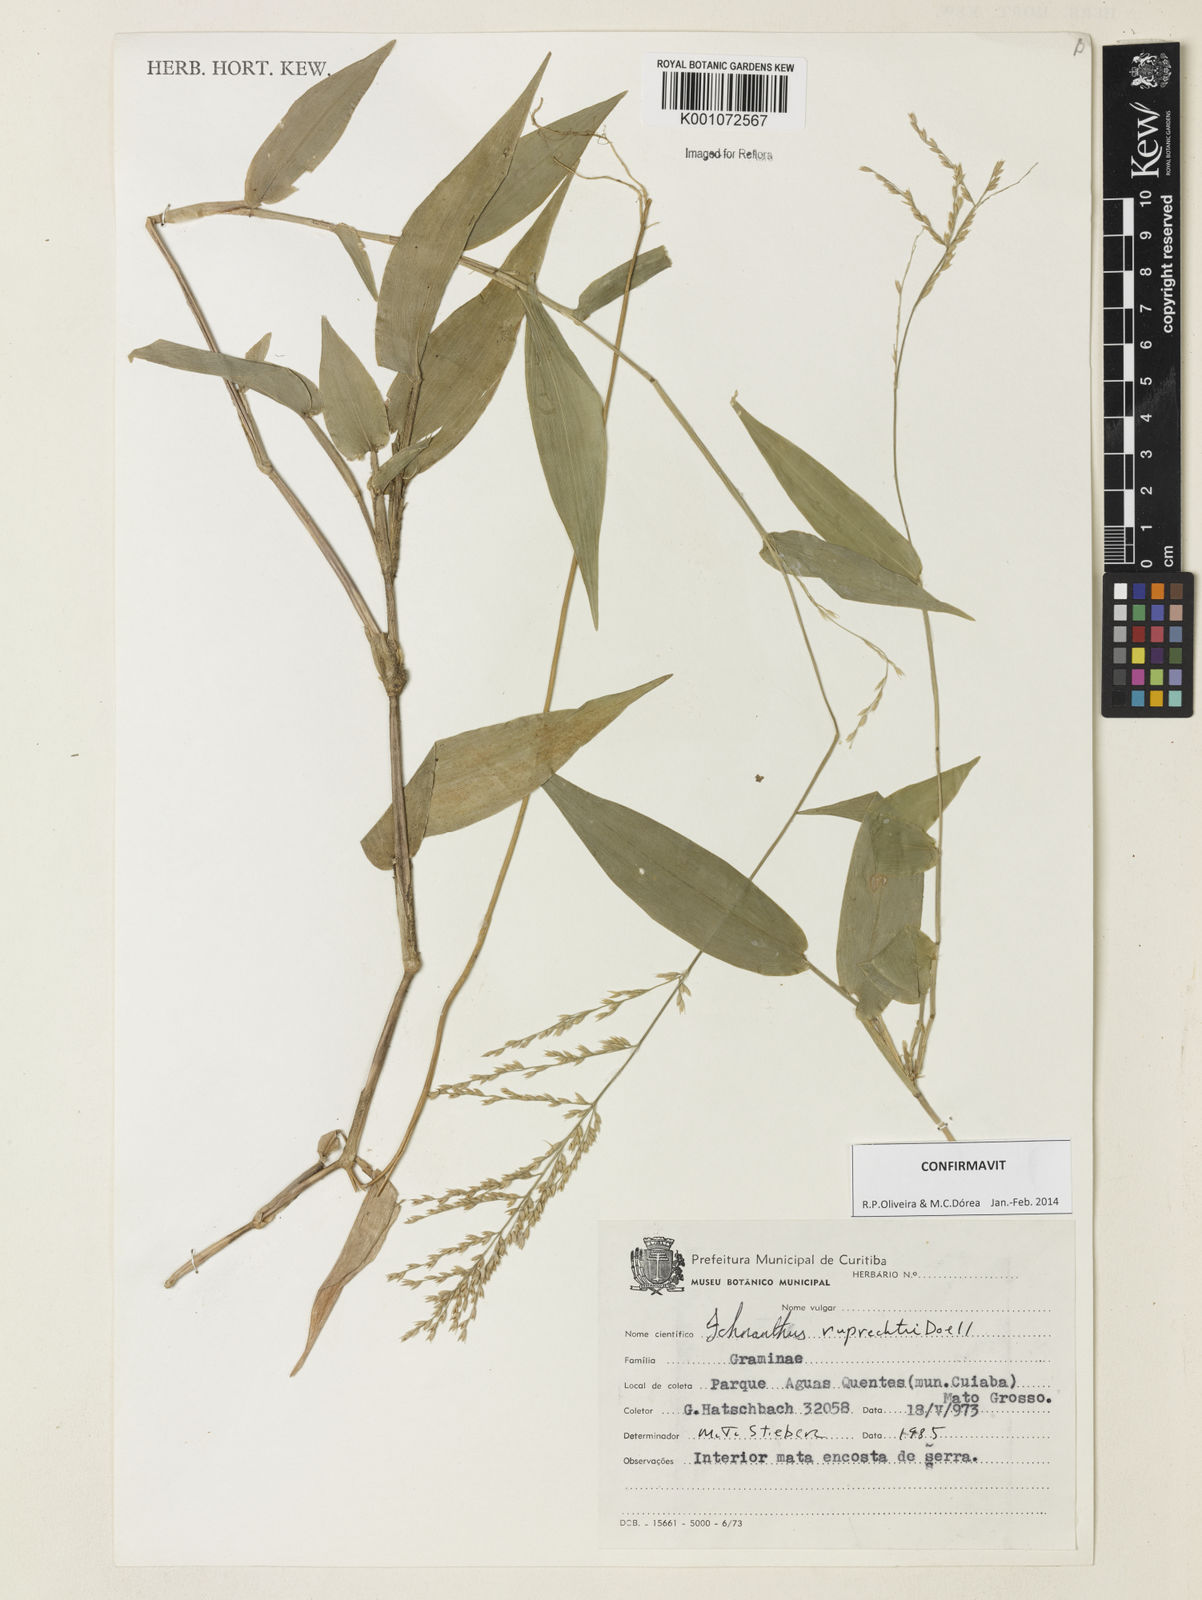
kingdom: Plantae
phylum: Tracheophyta
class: Liliopsida
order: Poales
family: Poaceae
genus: Ichnanthus
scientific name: Ichnanthus
